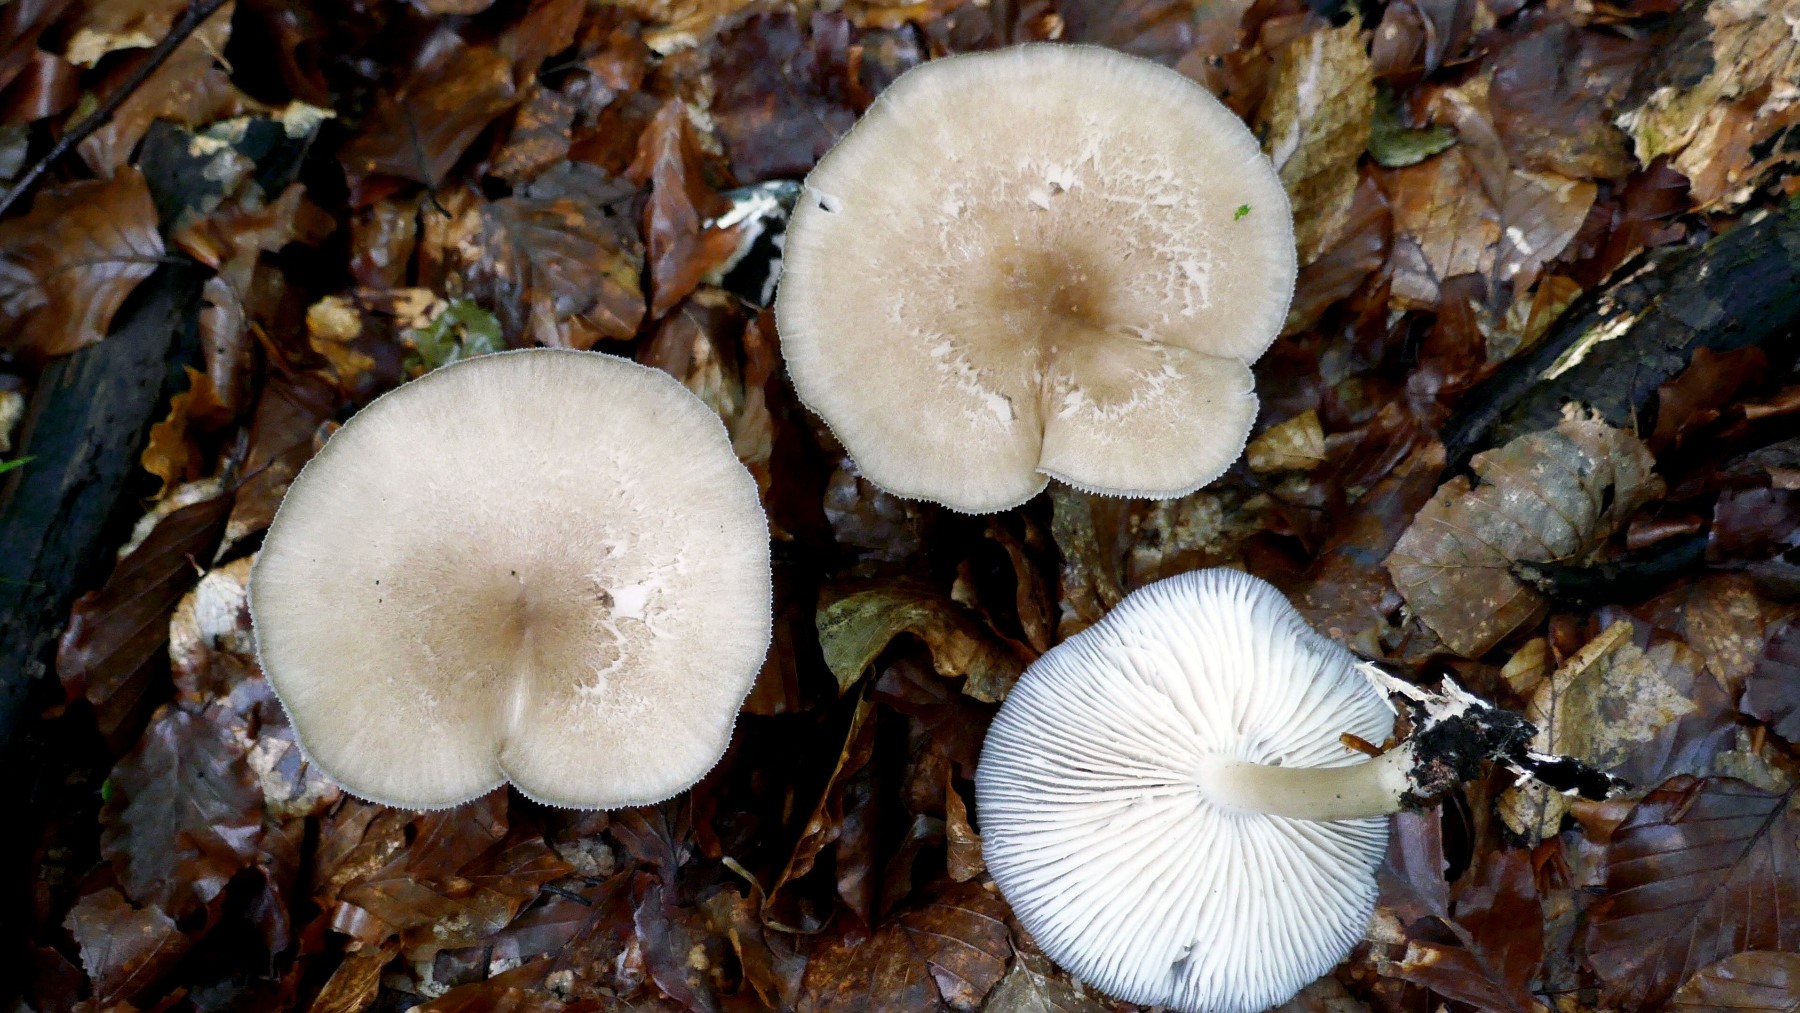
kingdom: Fungi
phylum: Basidiomycota
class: Agaricomycetes
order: Agaricales
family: Tricholomataceae
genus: Megacollybia
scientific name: Megacollybia platyphylla
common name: bredbladet væbnerhat
